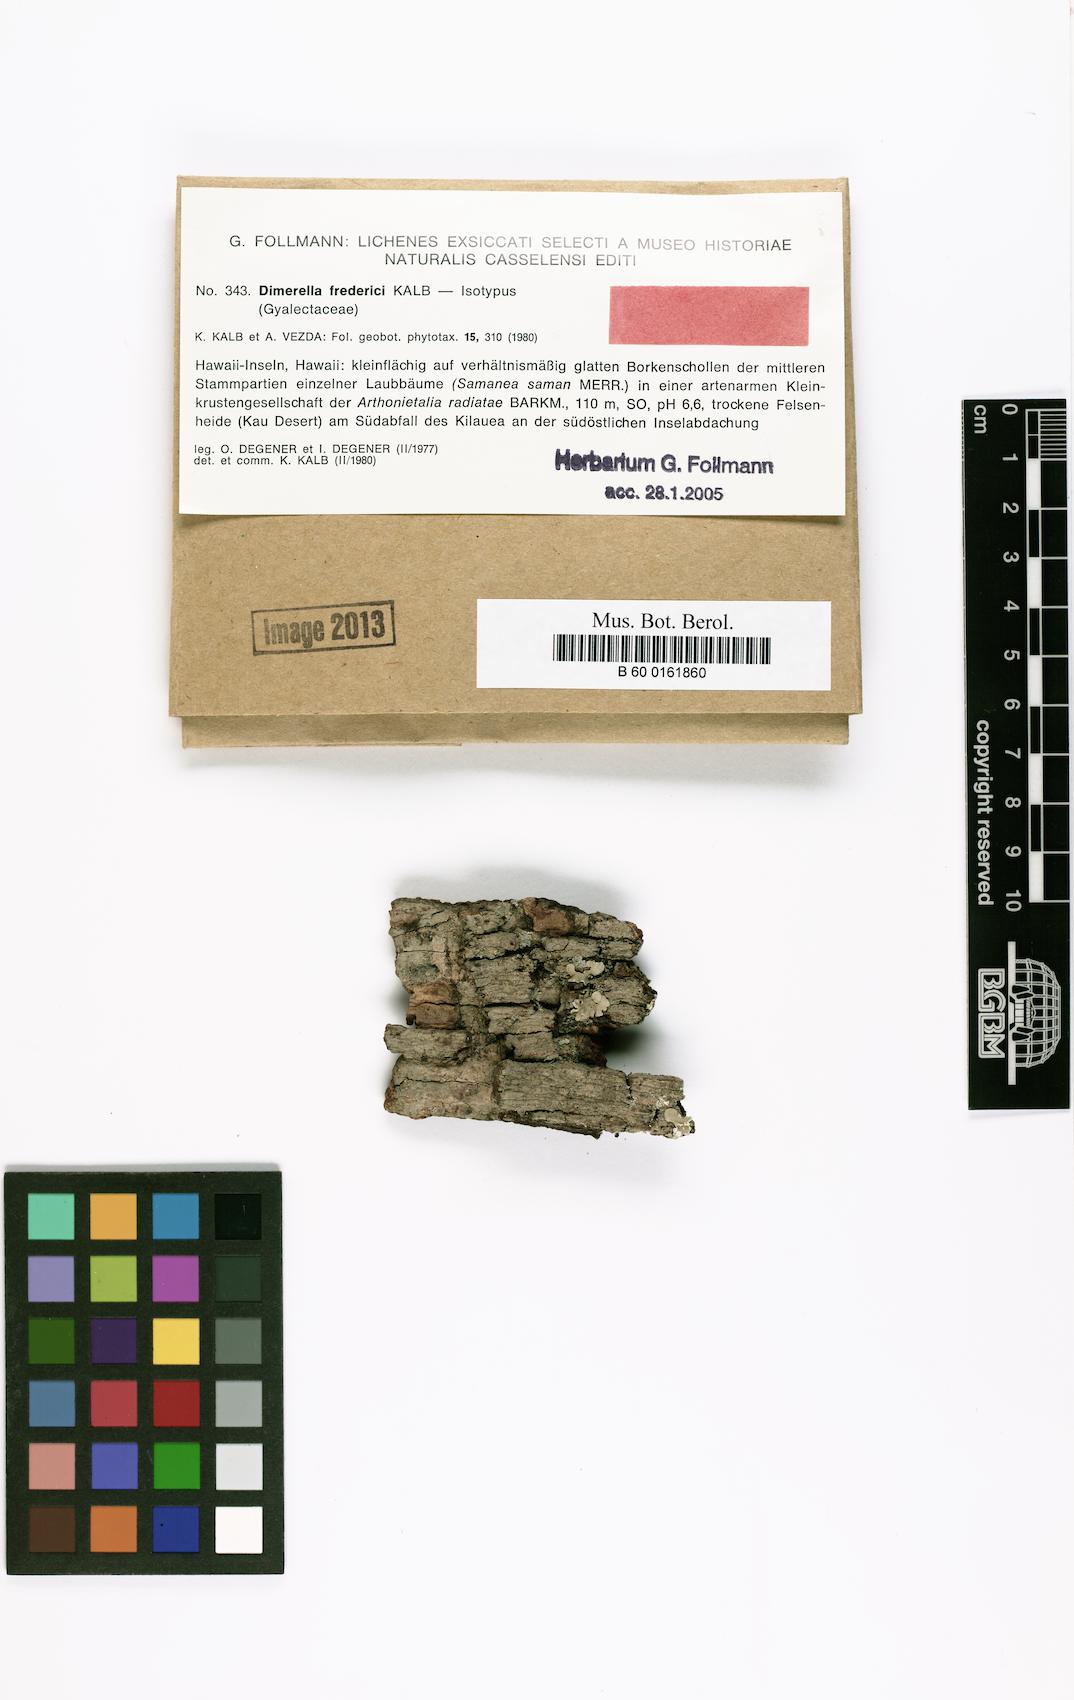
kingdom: Fungi
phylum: Ascomycota
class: Lecanoromycetes
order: Gyalectales
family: Gyalectaceae
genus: Dimerella
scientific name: Dimerella fredrici
